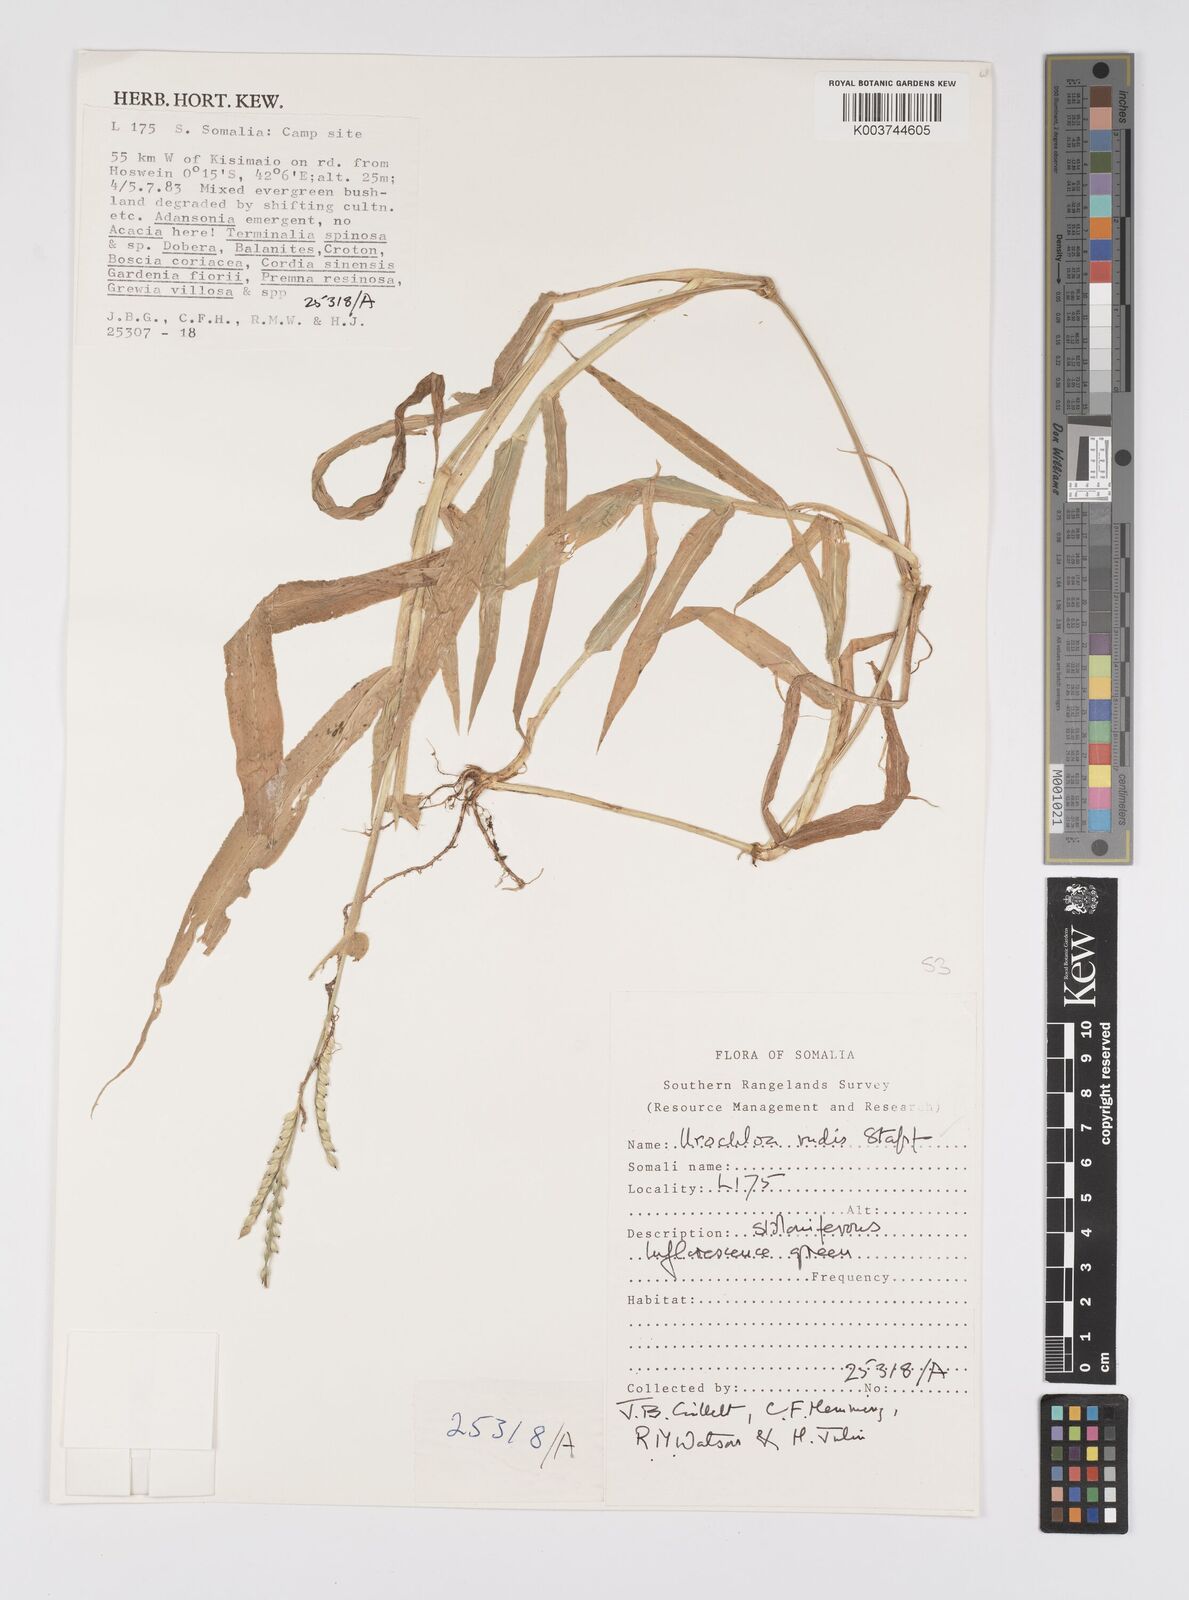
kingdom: Plantae
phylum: Tracheophyta
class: Liliopsida
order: Poales
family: Poaceae
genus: Urochloa
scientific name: Urochloa rudis
